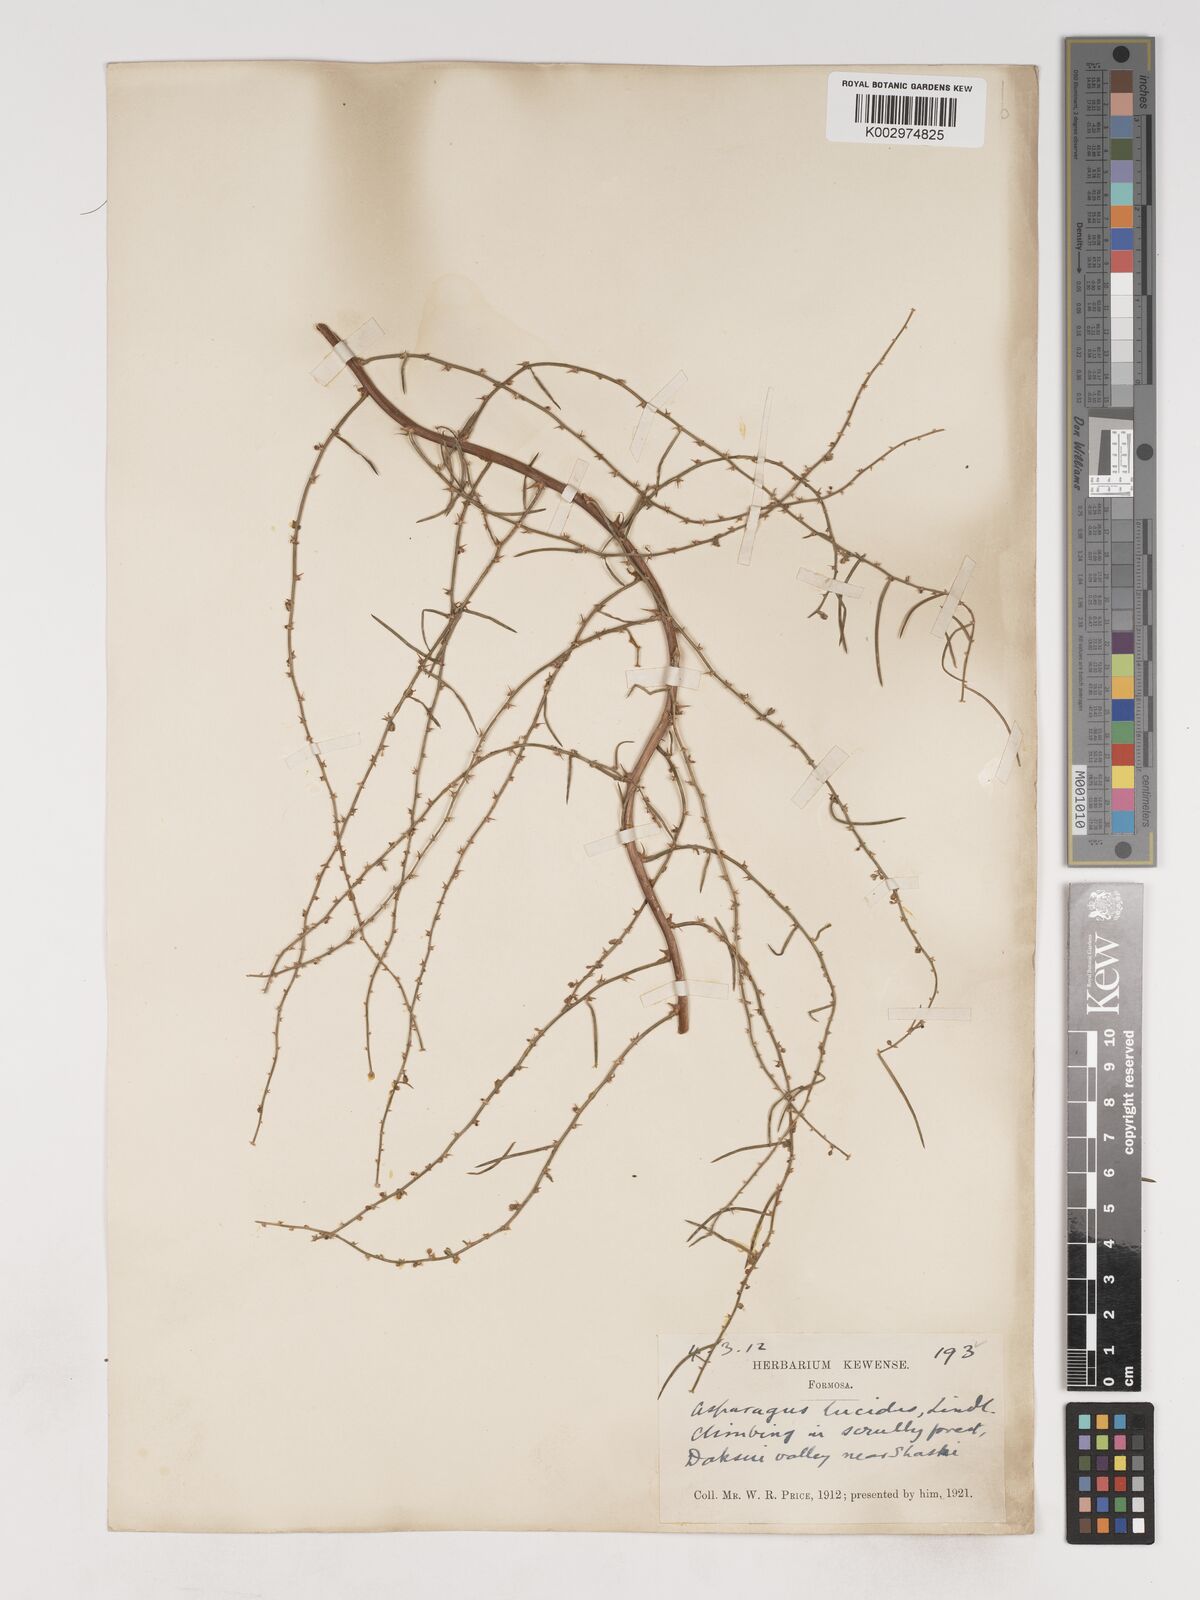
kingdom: Plantae
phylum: Tracheophyta
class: Liliopsida
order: Asparagales
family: Asparagaceae
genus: Asparagus
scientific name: Asparagus cochinchinensis
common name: Chinese asparagus
